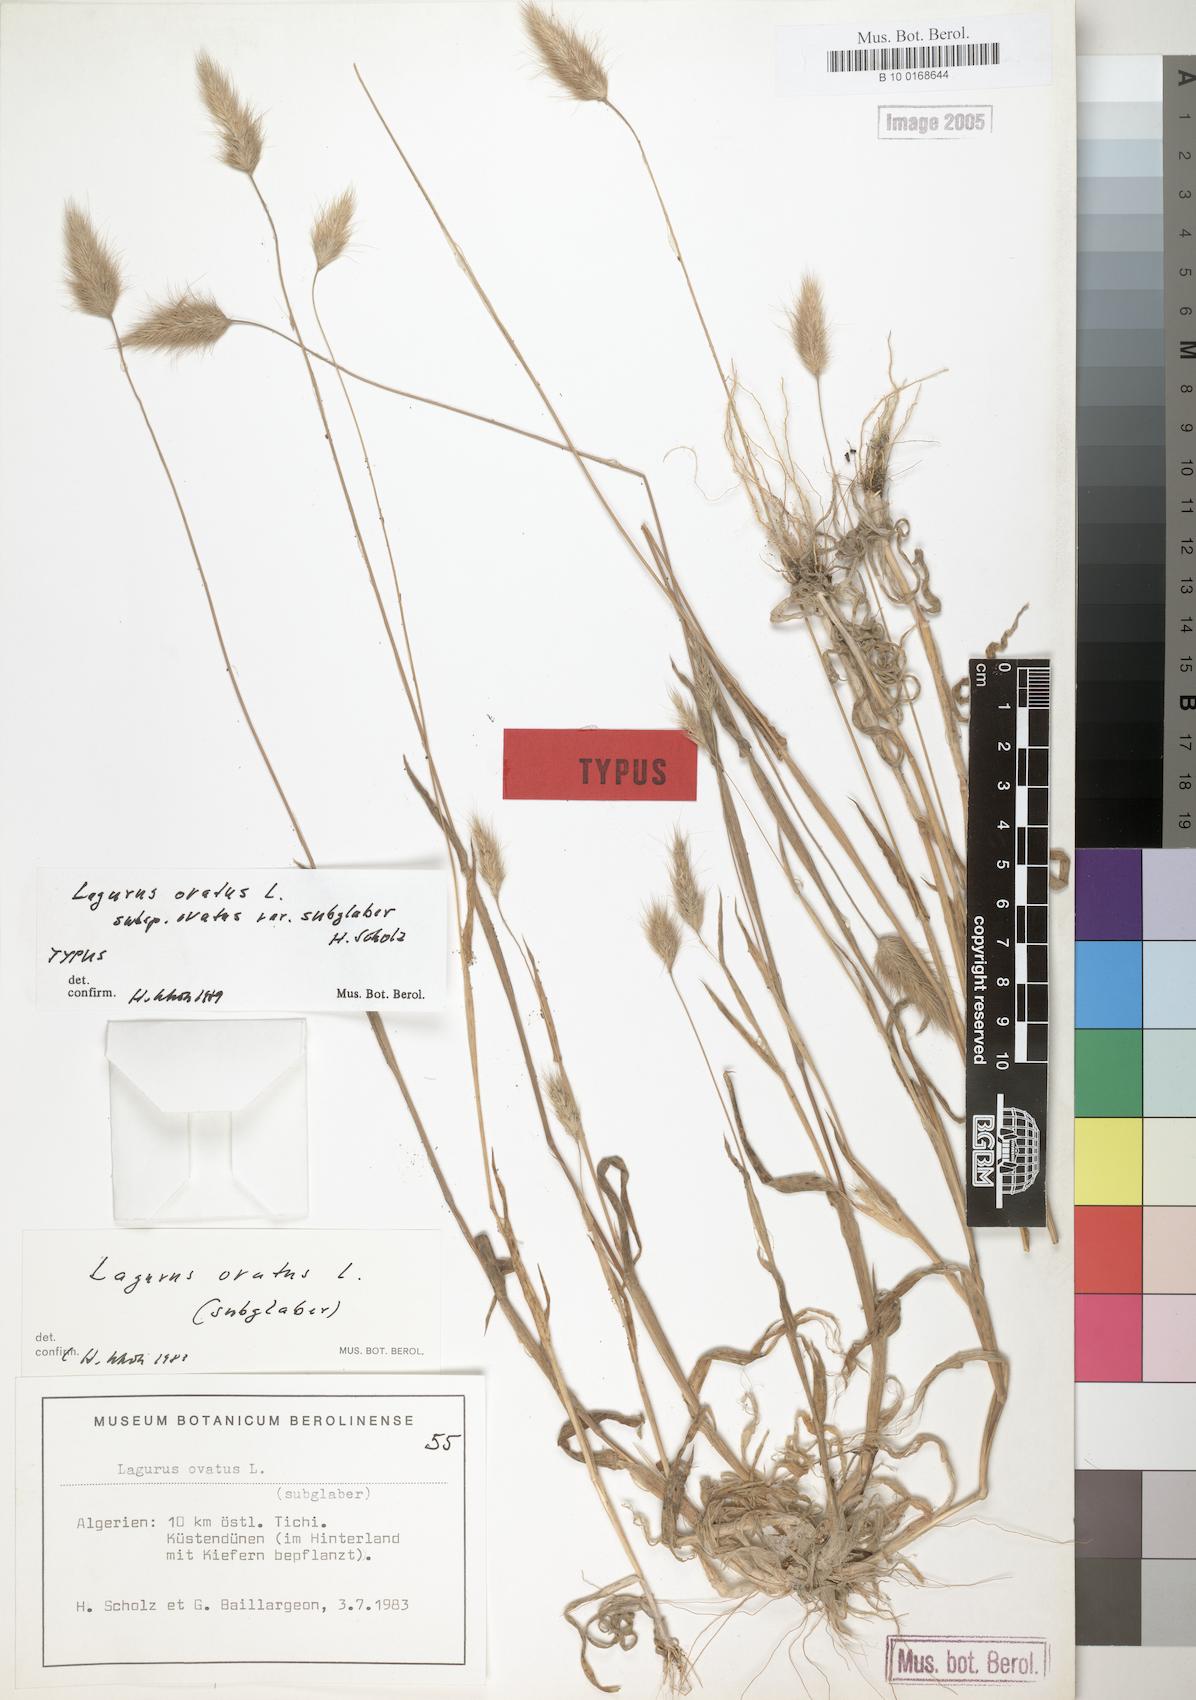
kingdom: Plantae
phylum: Tracheophyta
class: Liliopsida
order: Poales
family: Poaceae
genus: Lagurus
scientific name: Lagurus ovatus
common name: Hare's-tail
